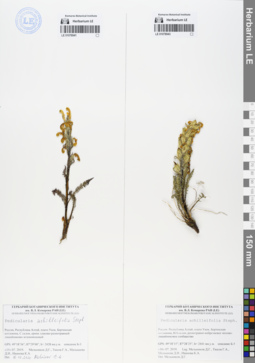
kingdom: Plantae
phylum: Tracheophyta
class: Magnoliopsida
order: Lamiales
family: Orobanchaceae
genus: Pedicularis
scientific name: Pedicularis achilleifolia
